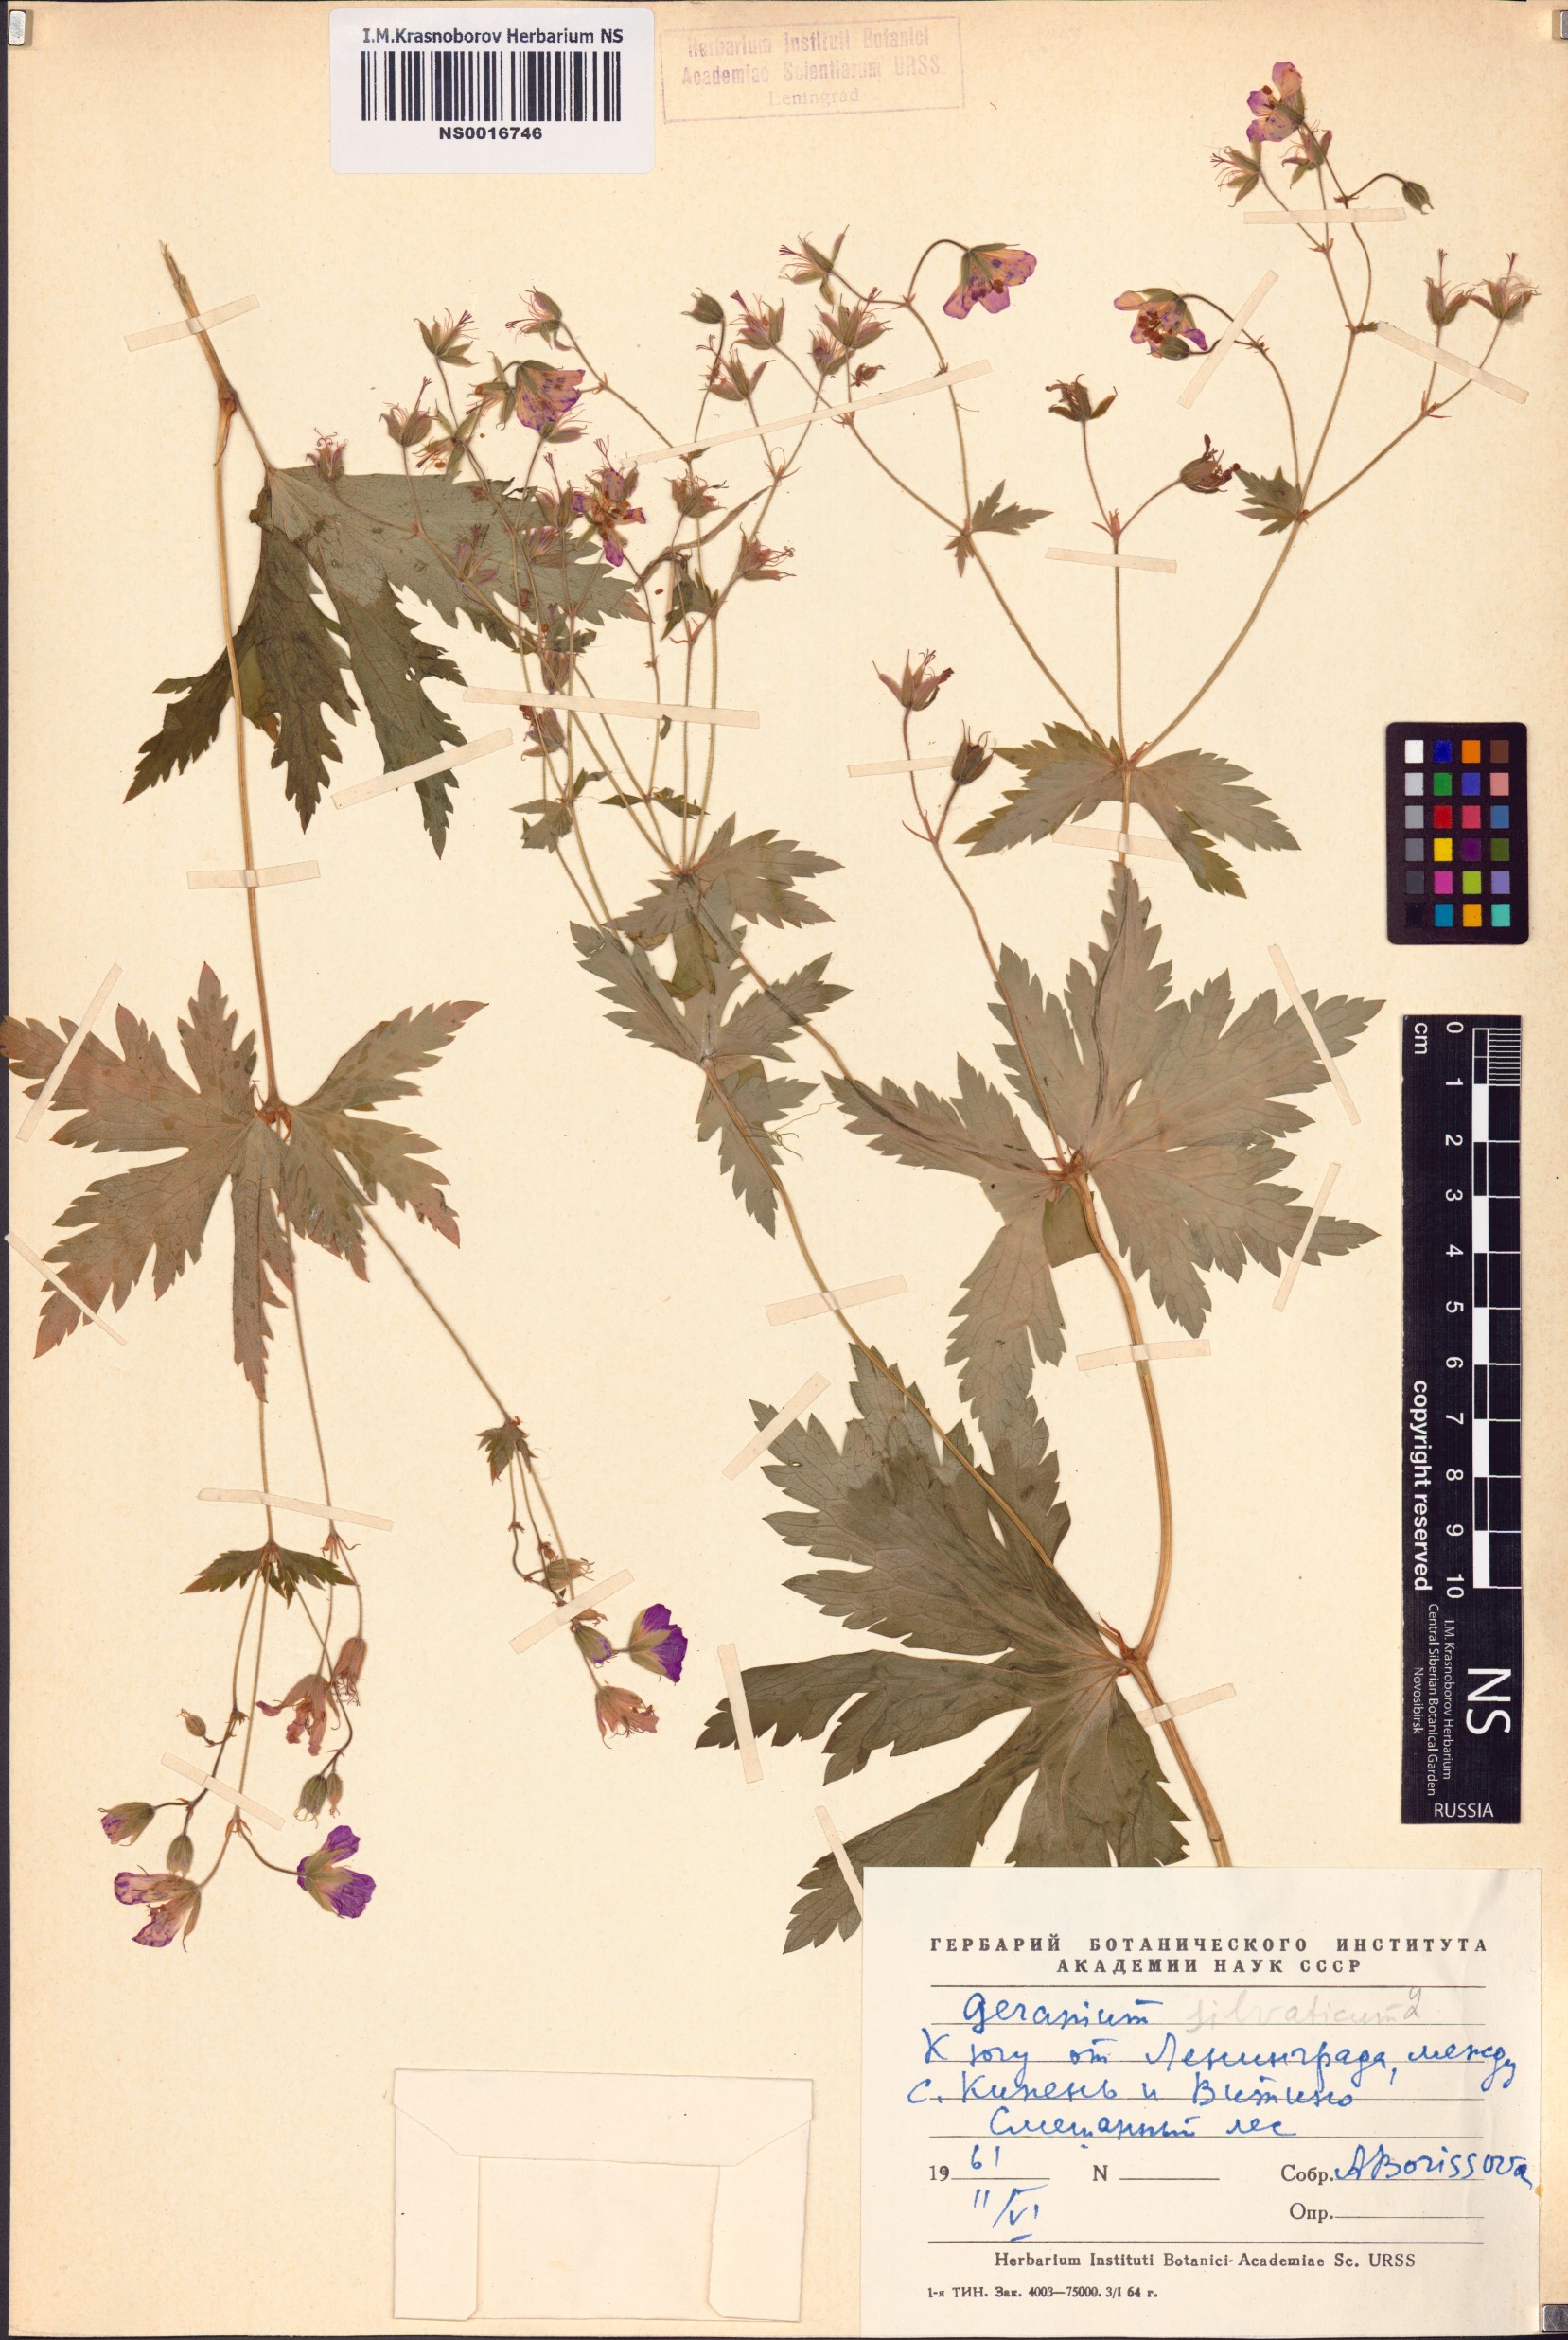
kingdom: Plantae
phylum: Tracheophyta
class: Magnoliopsida
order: Geraniales
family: Geraniaceae
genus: Geranium
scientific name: Geranium sylvaticum
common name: Wood crane's-bill
